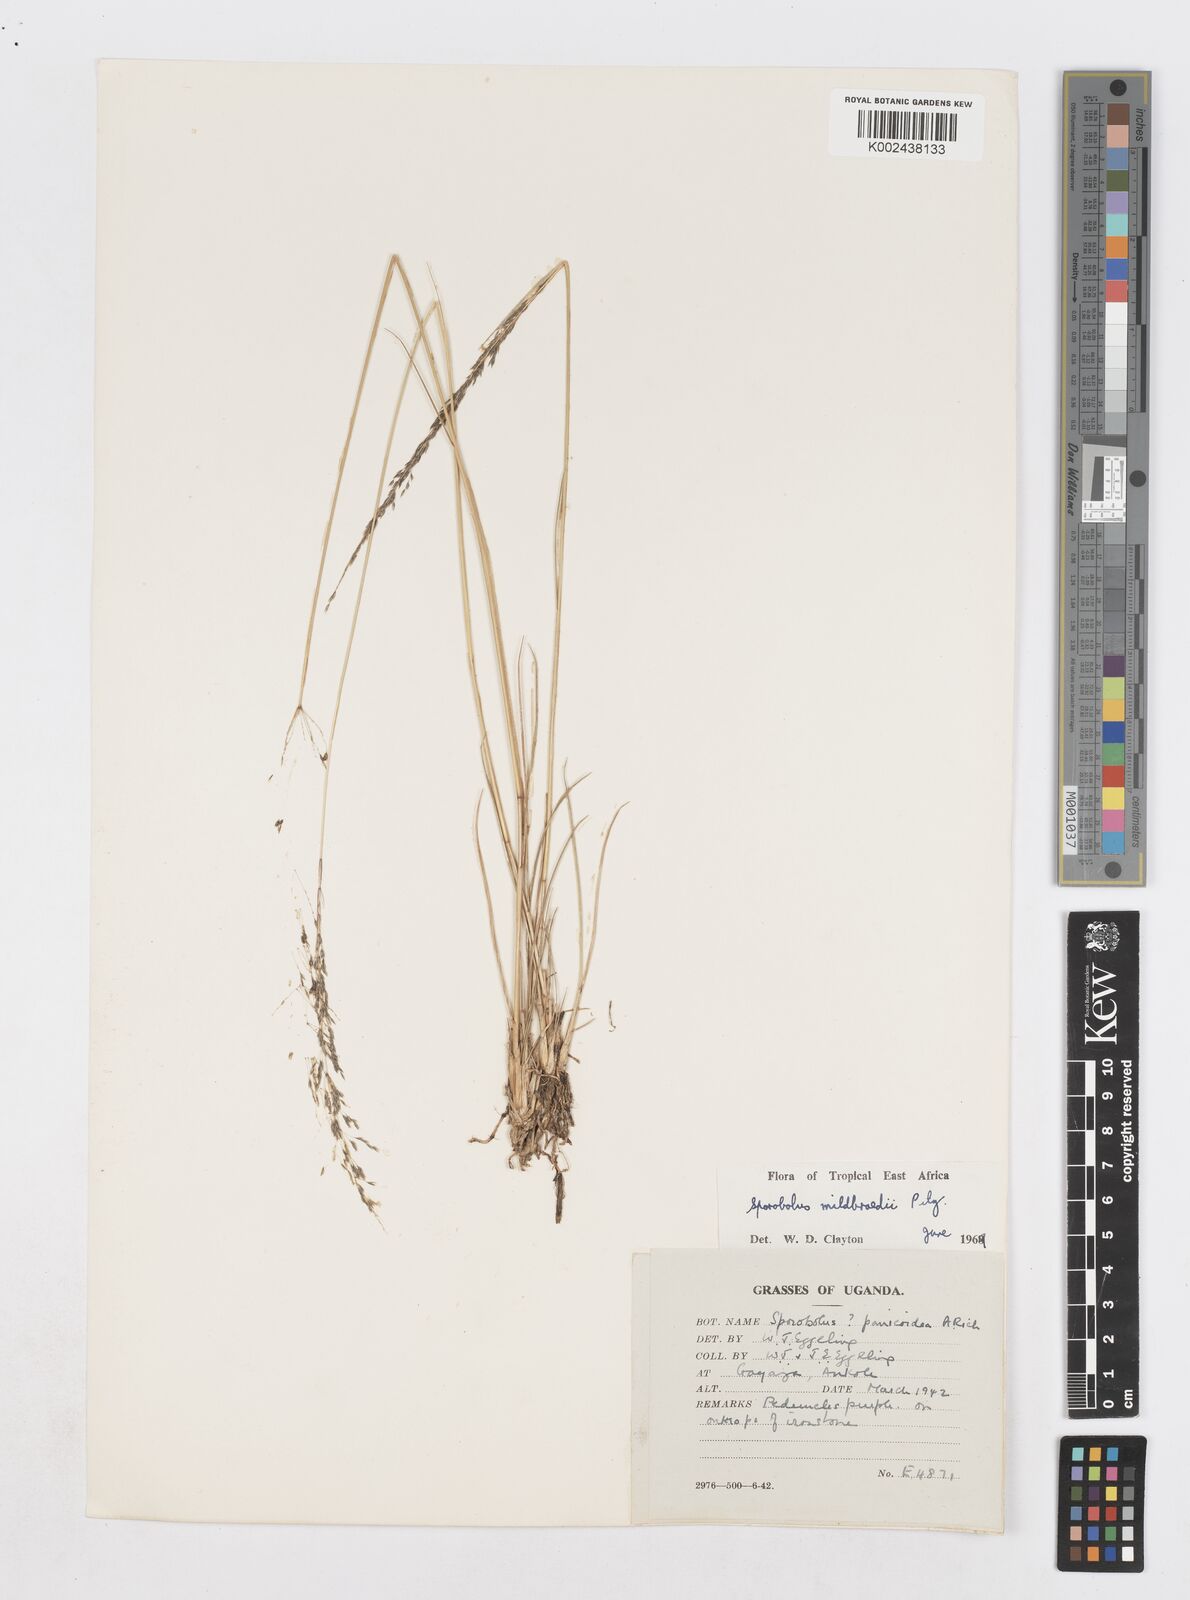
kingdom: Plantae
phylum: Tracheophyta
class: Liliopsida
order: Poales
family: Poaceae
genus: Sporobolus
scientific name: Sporobolus mildbraedii
